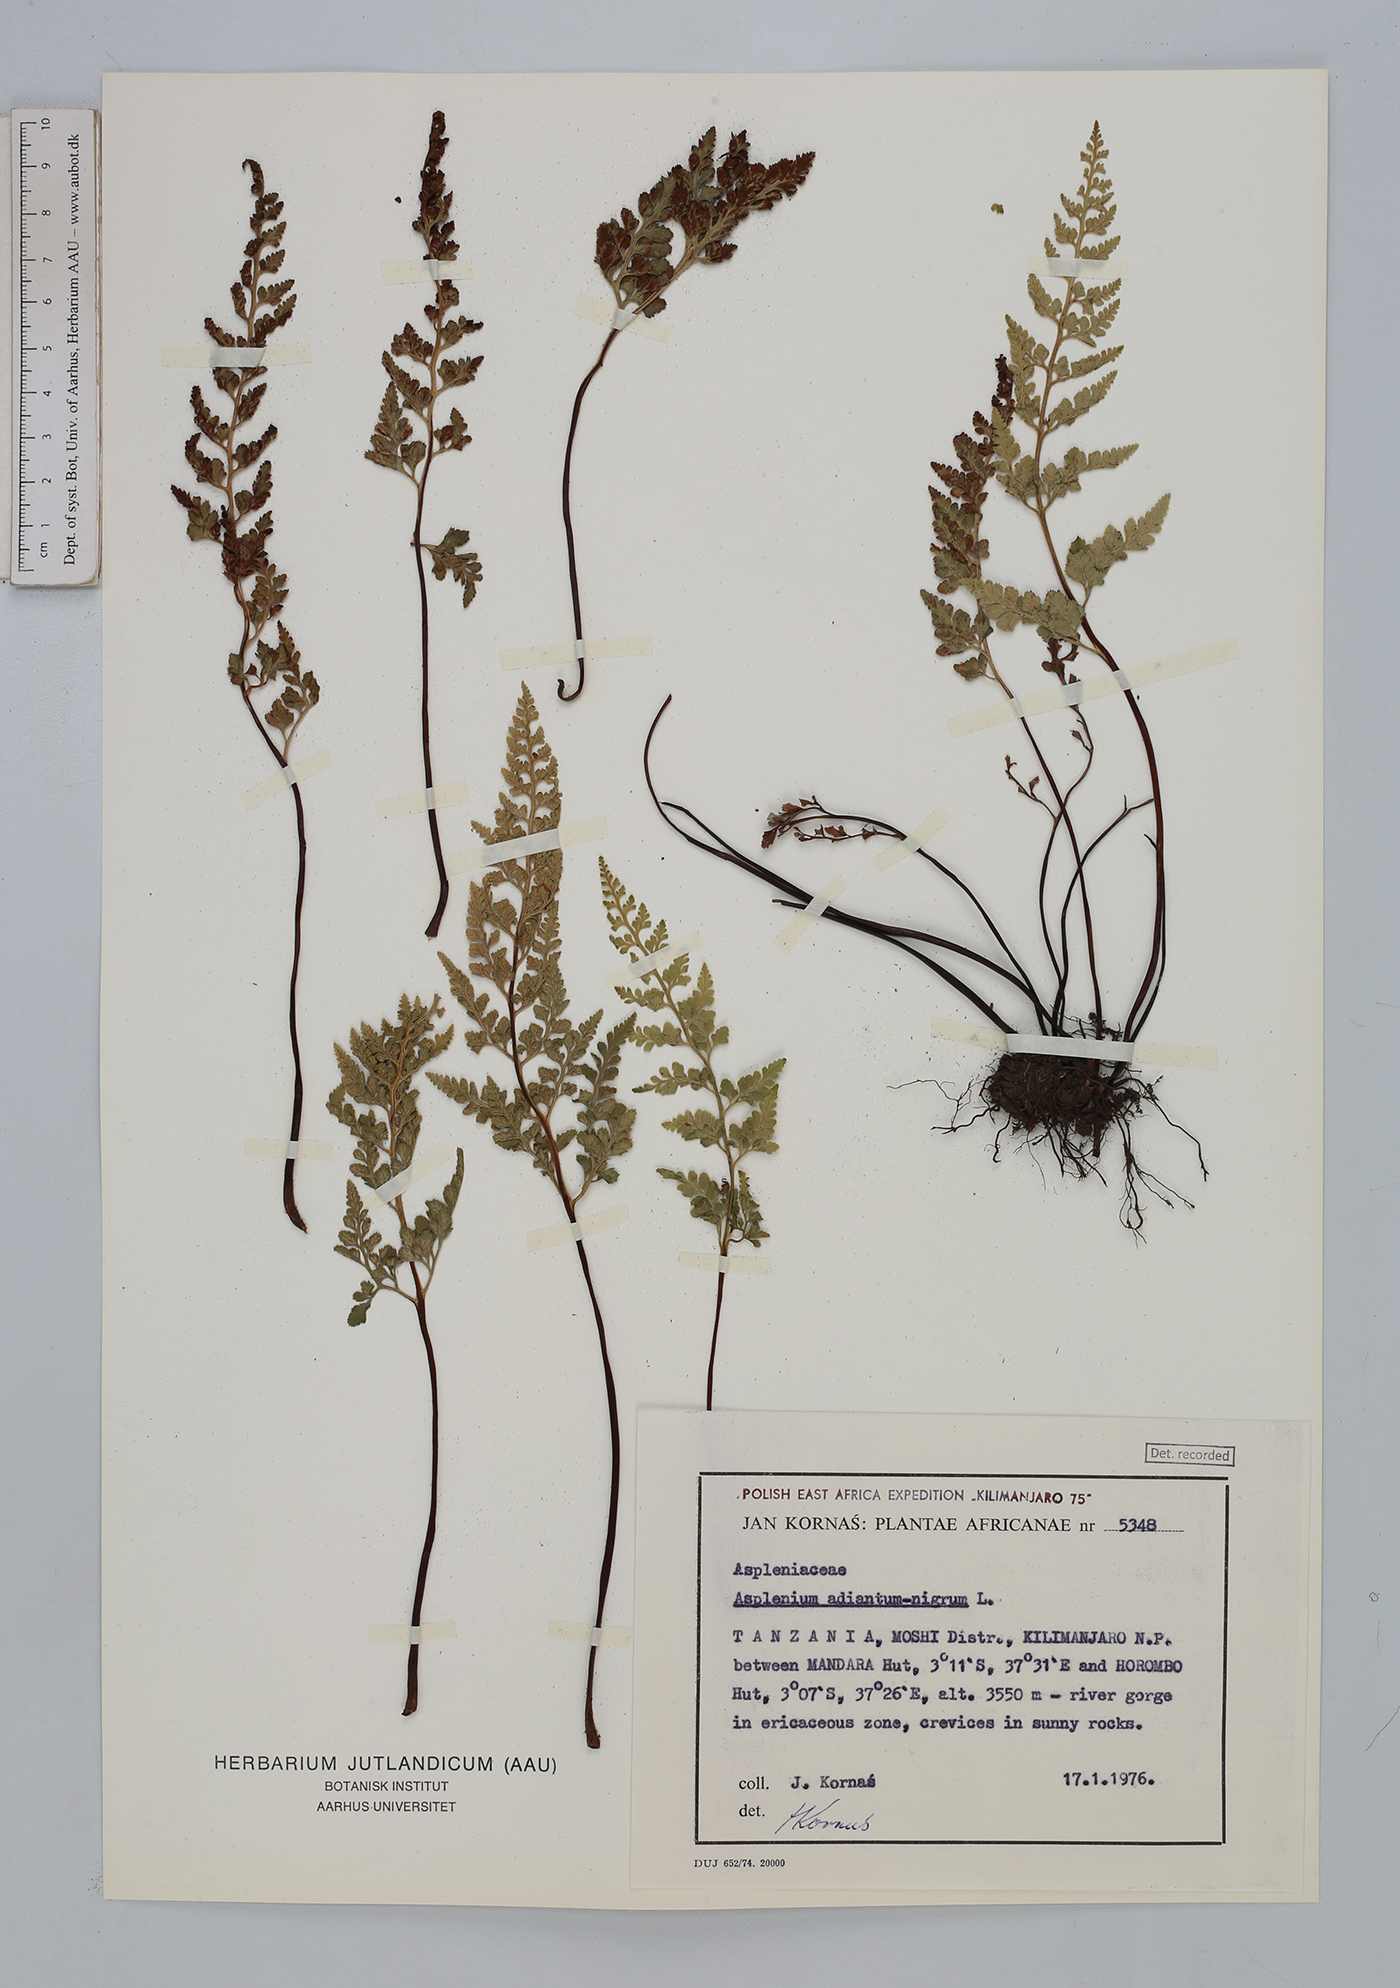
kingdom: Plantae
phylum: Tracheophyta
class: Polypodiopsida
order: Polypodiales
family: Aspleniaceae
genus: Asplenium
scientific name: Asplenium adiantum-nigrum
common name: Black spleenwort
